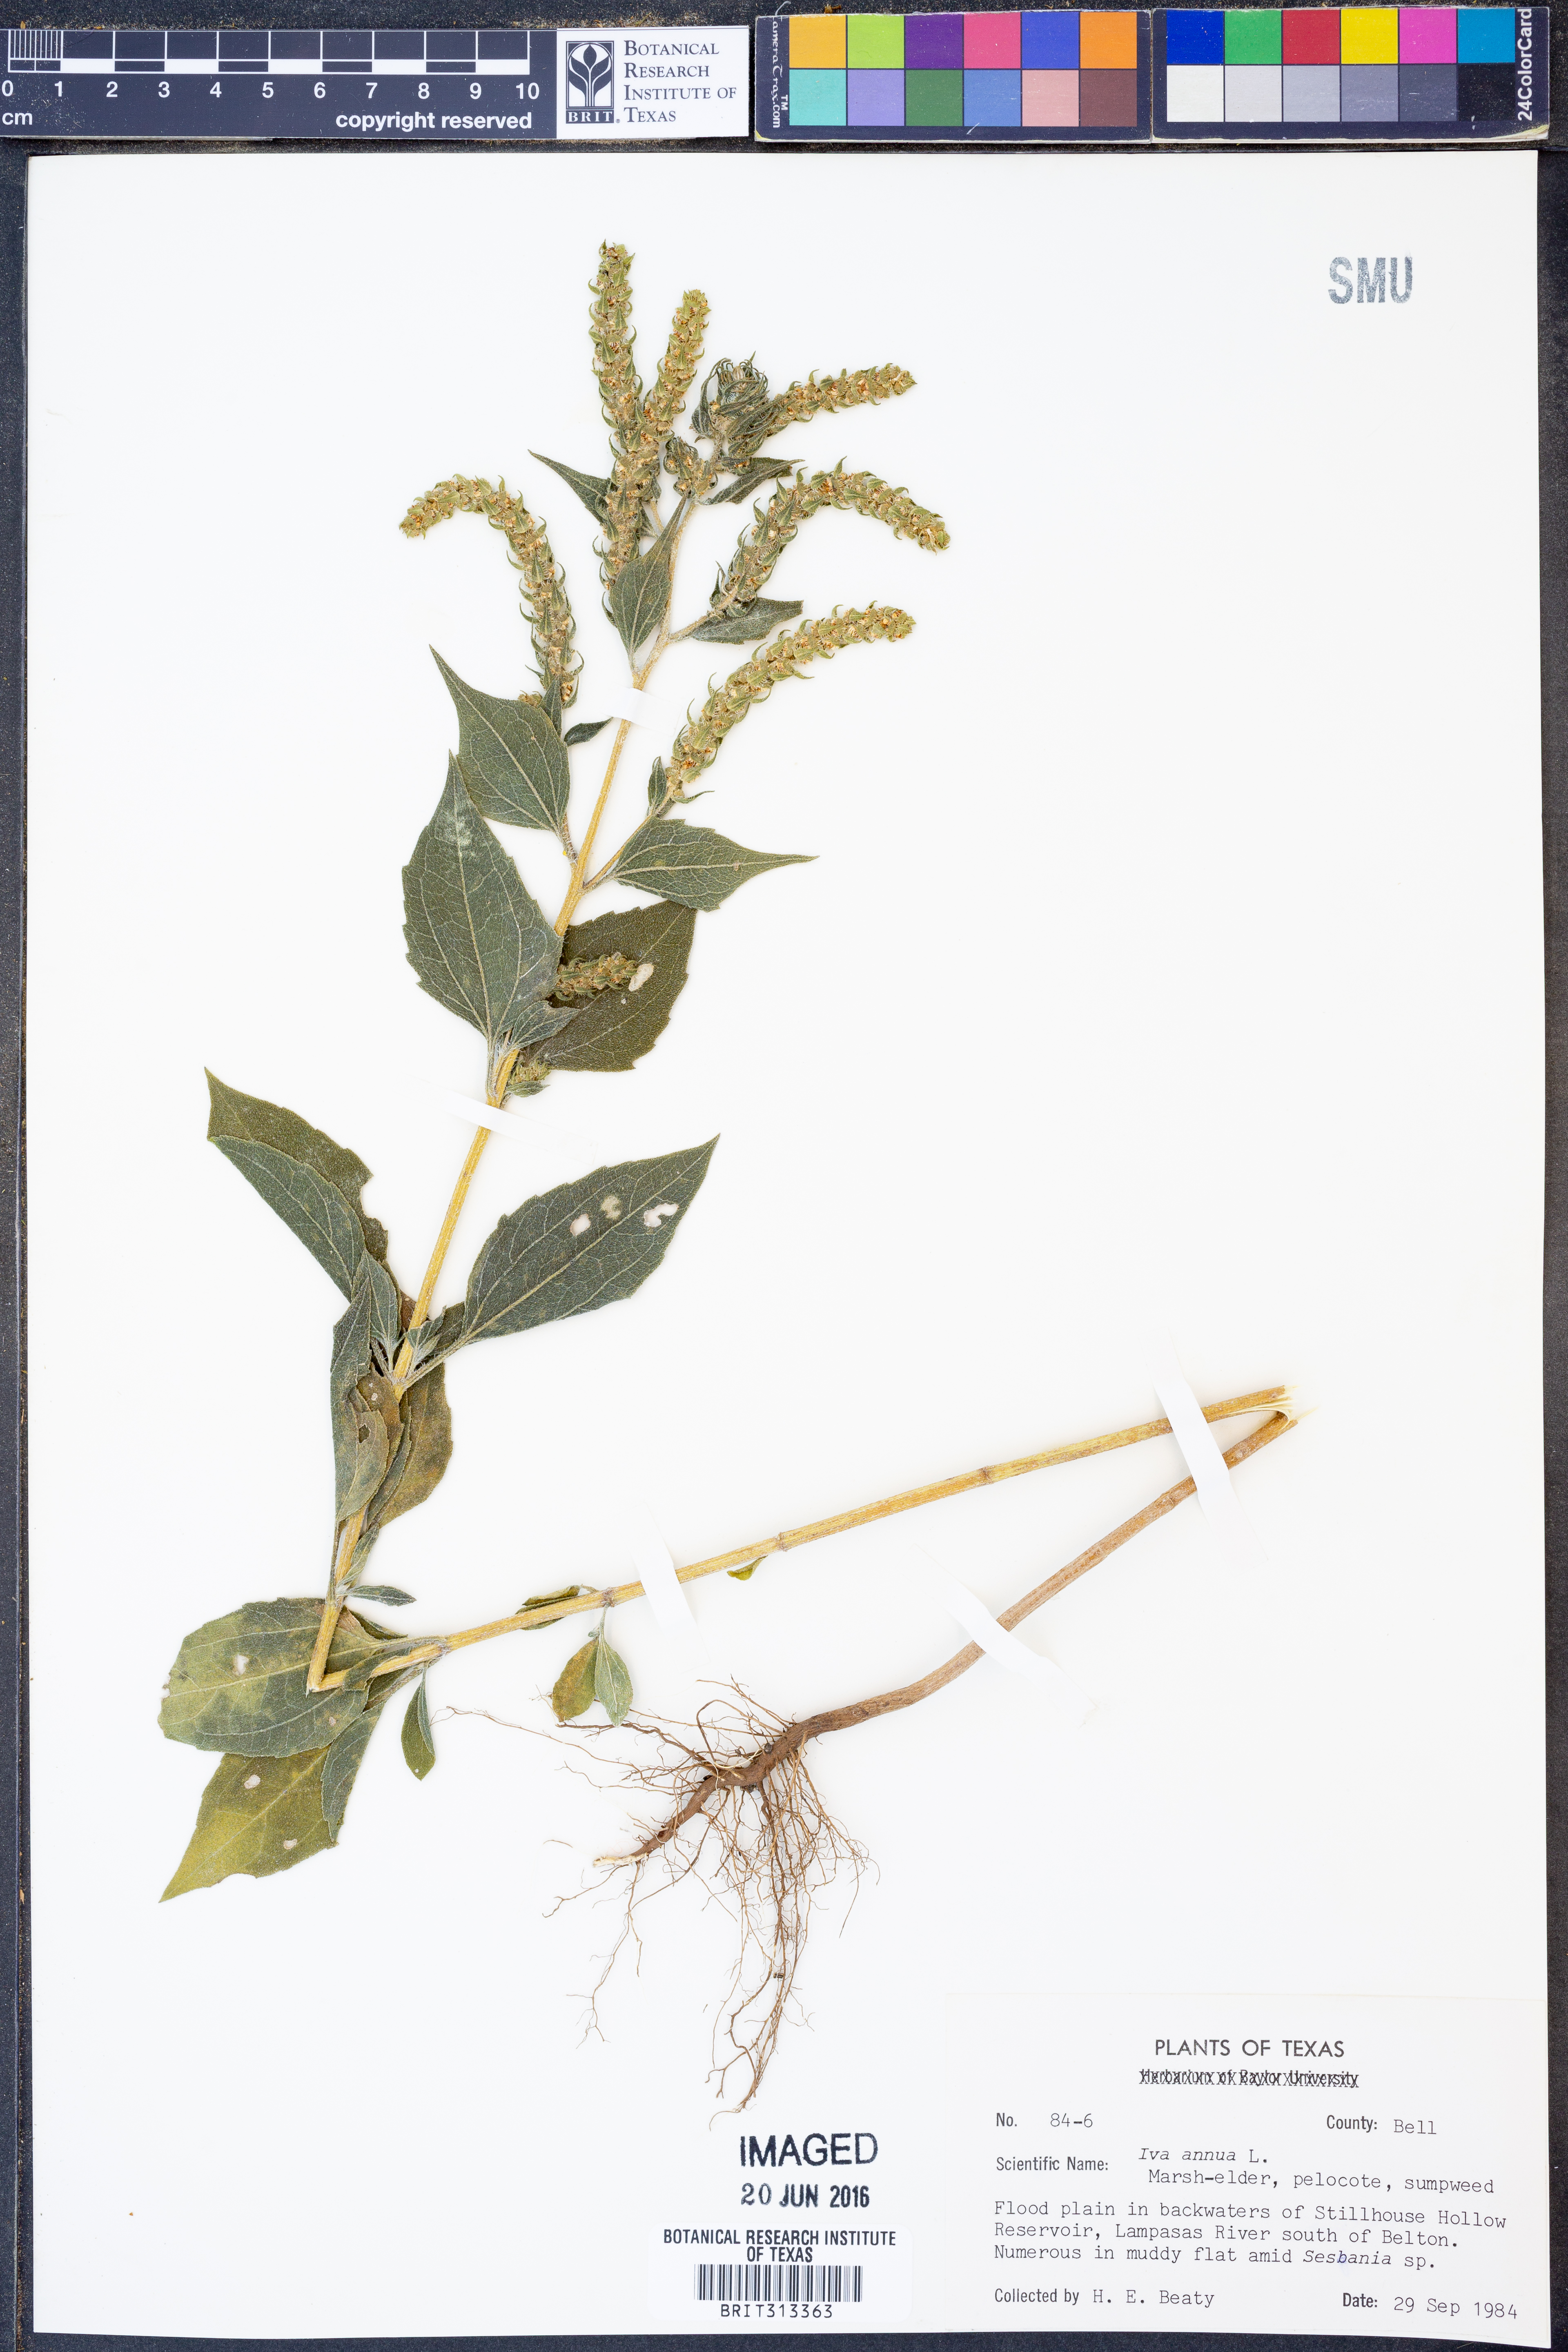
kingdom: Plantae
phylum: Tracheophyta
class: Magnoliopsida
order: Asterales
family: Asteraceae
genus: Iva
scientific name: Iva annua
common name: Marsh-elder
